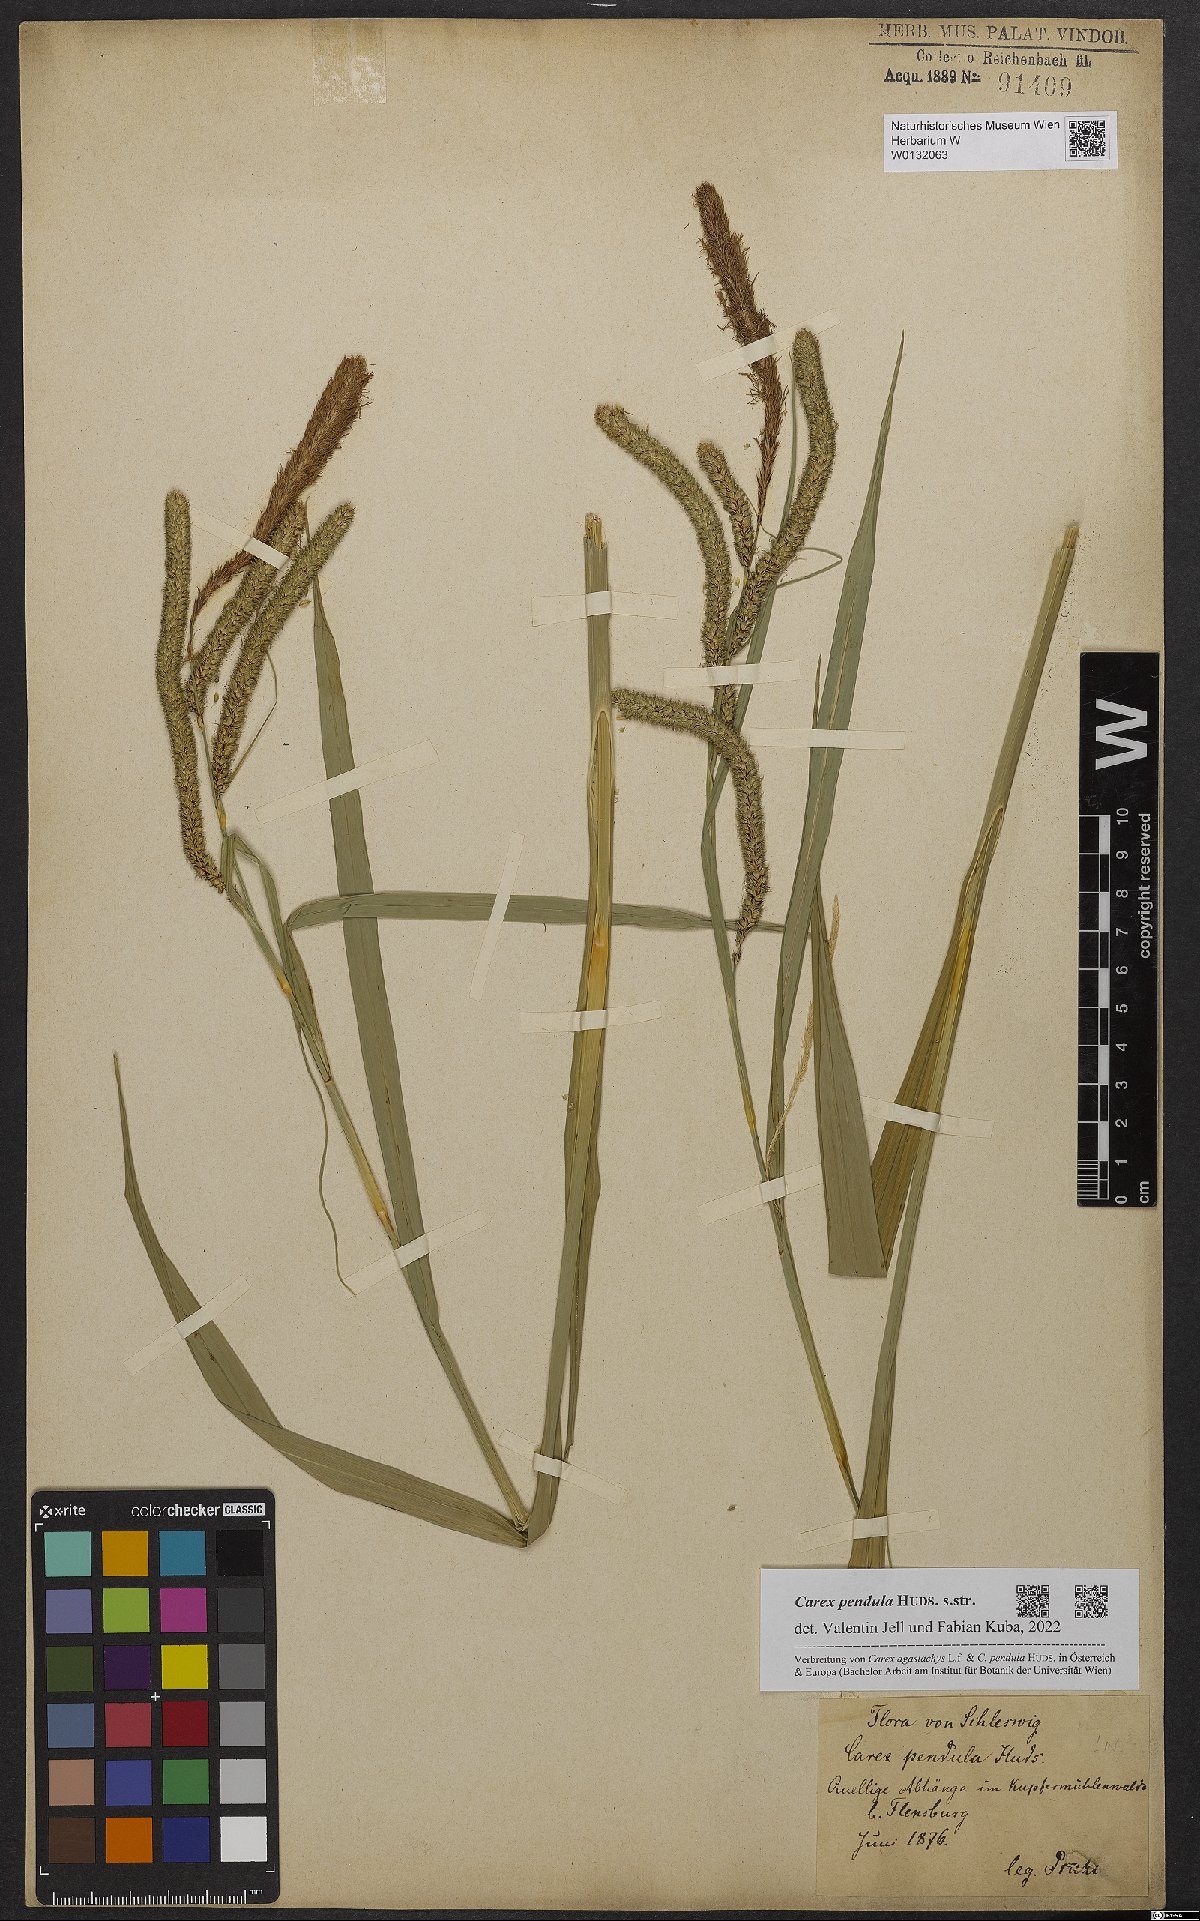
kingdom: Plantae
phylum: Tracheophyta
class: Liliopsida
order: Poales
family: Cyperaceae
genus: Carex
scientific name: Carex pendula
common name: Pendulous sedge
